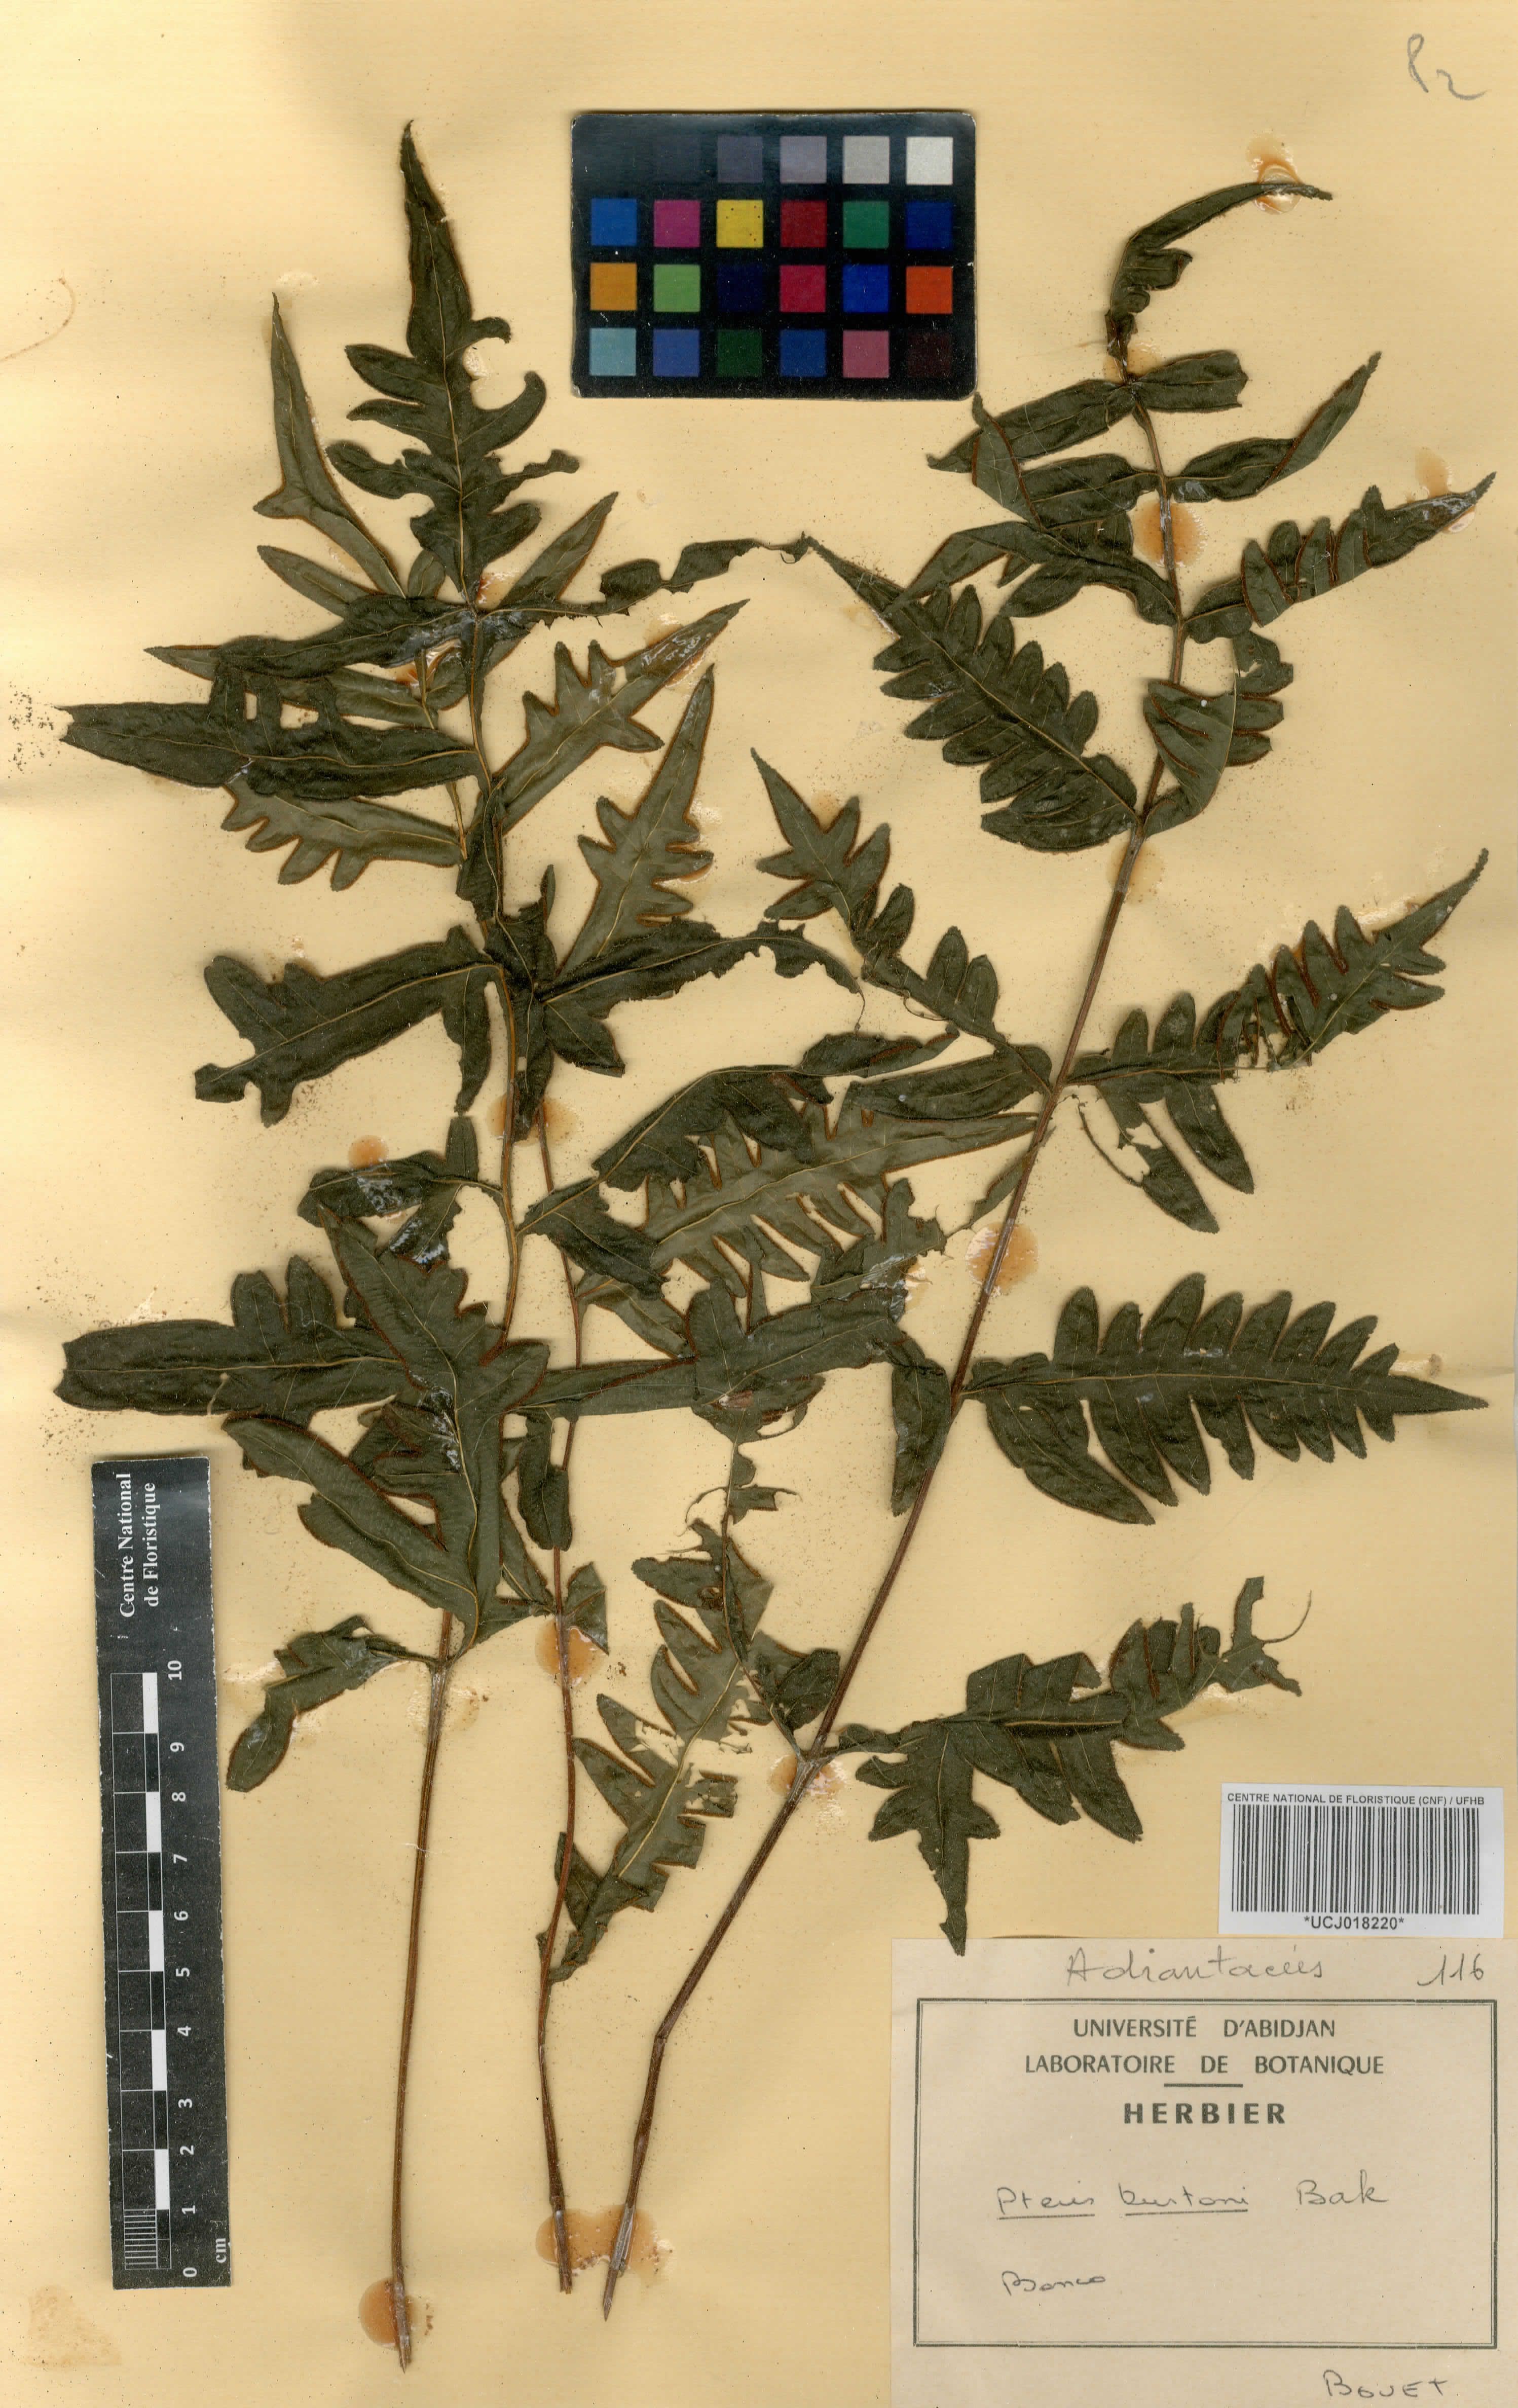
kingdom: Plantae
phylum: Tracheophyta
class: Polypodiopsida
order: Polypodiales
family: Pteridaceae
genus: Pteris
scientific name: Pteris burtonii
